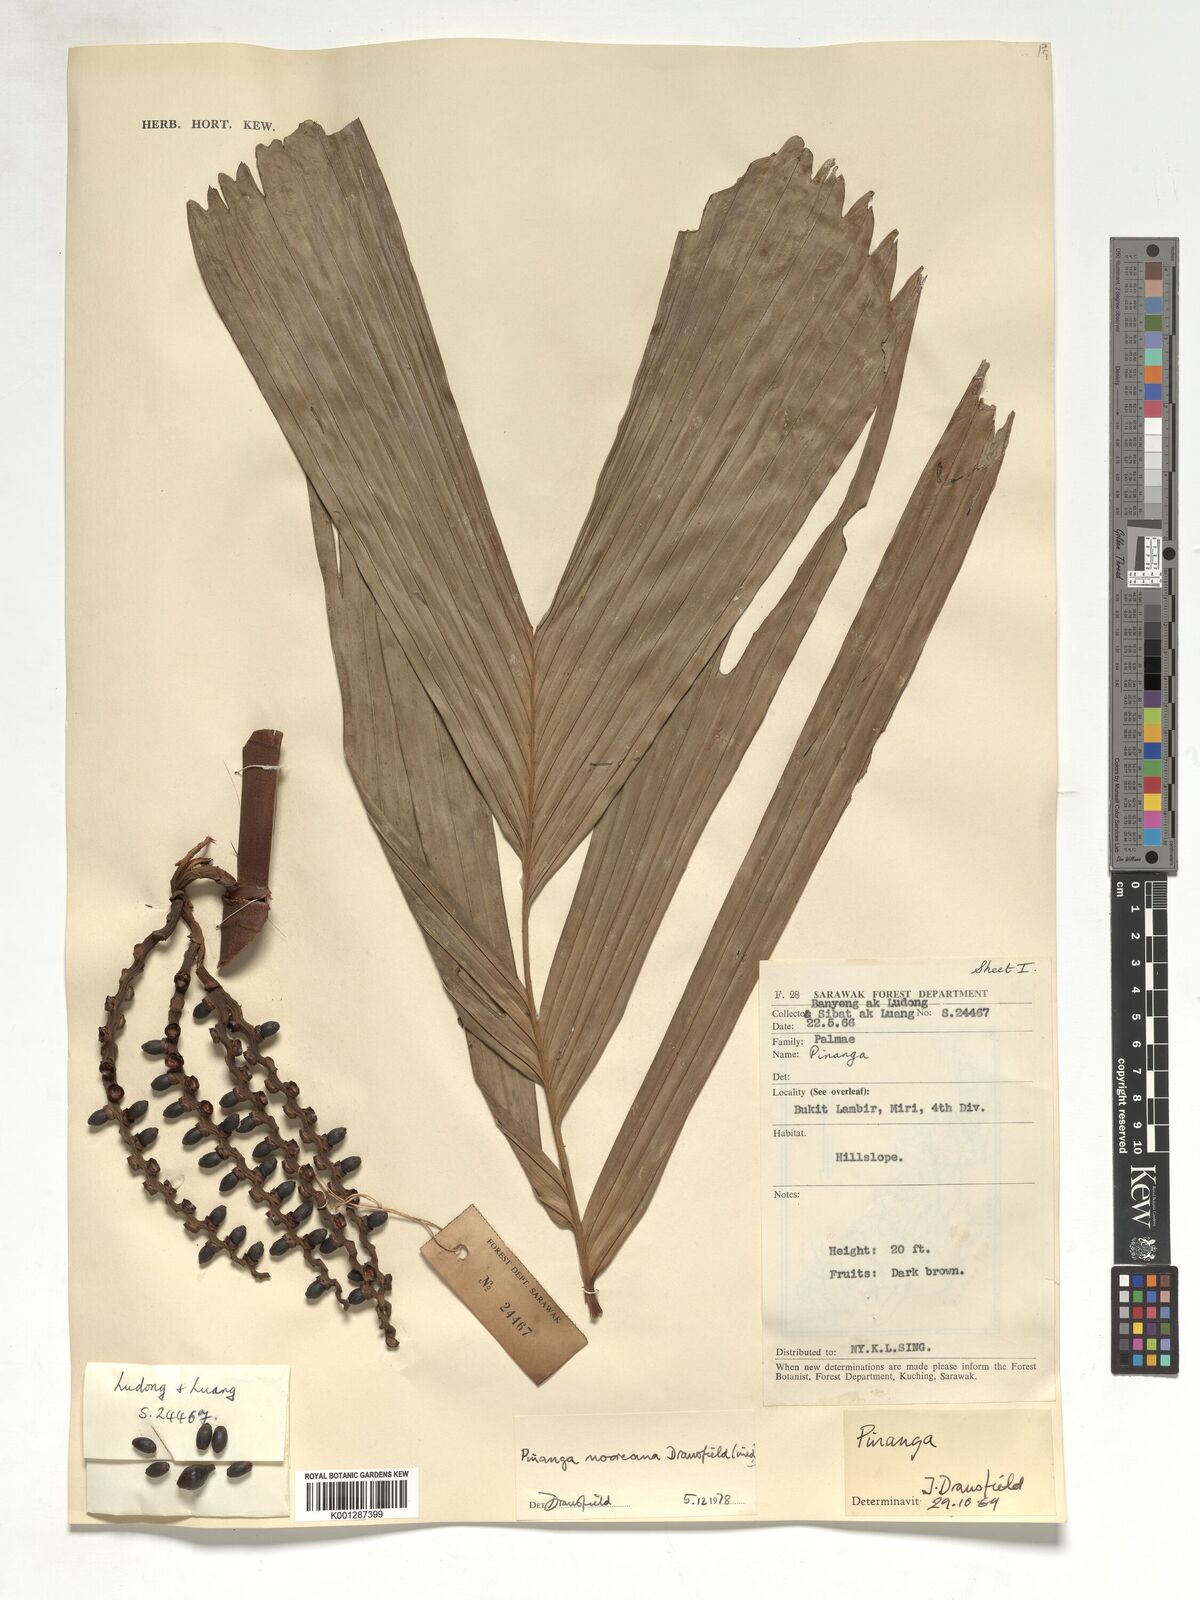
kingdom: Plantae
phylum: Tracheophyta
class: Liliopsida
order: Arecales
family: Arecaceae
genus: Pinanga
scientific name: Pinanga mooreana
